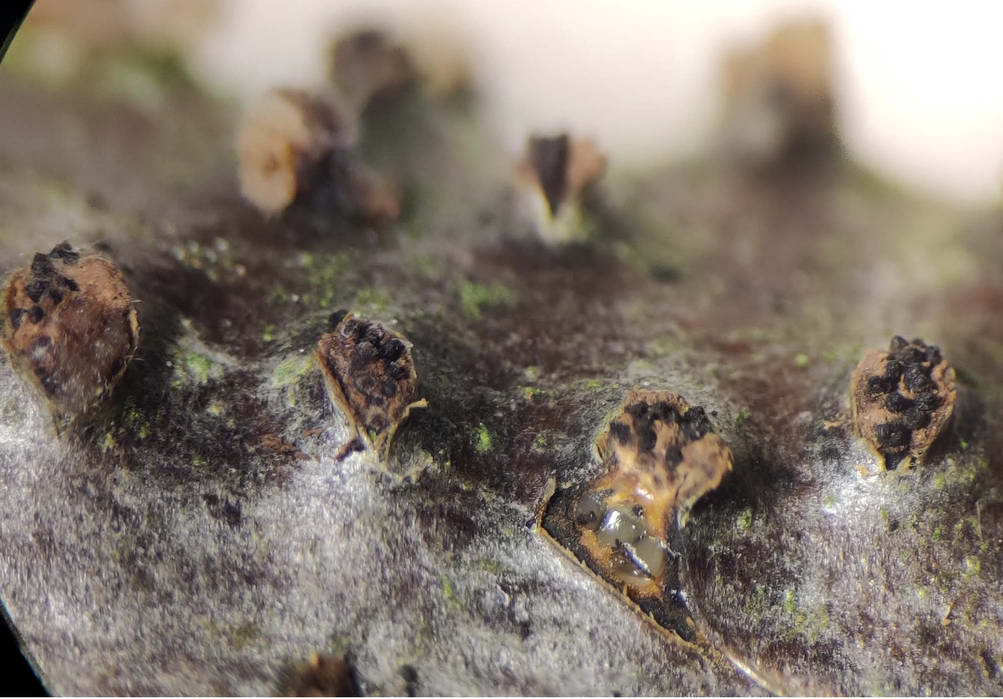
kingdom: Fungi
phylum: Ascomycota
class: Sordariomycetes
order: Diaporthales
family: Erythrogloeaceae
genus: Dendrostoma
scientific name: Dendrostoma leiphaemia
